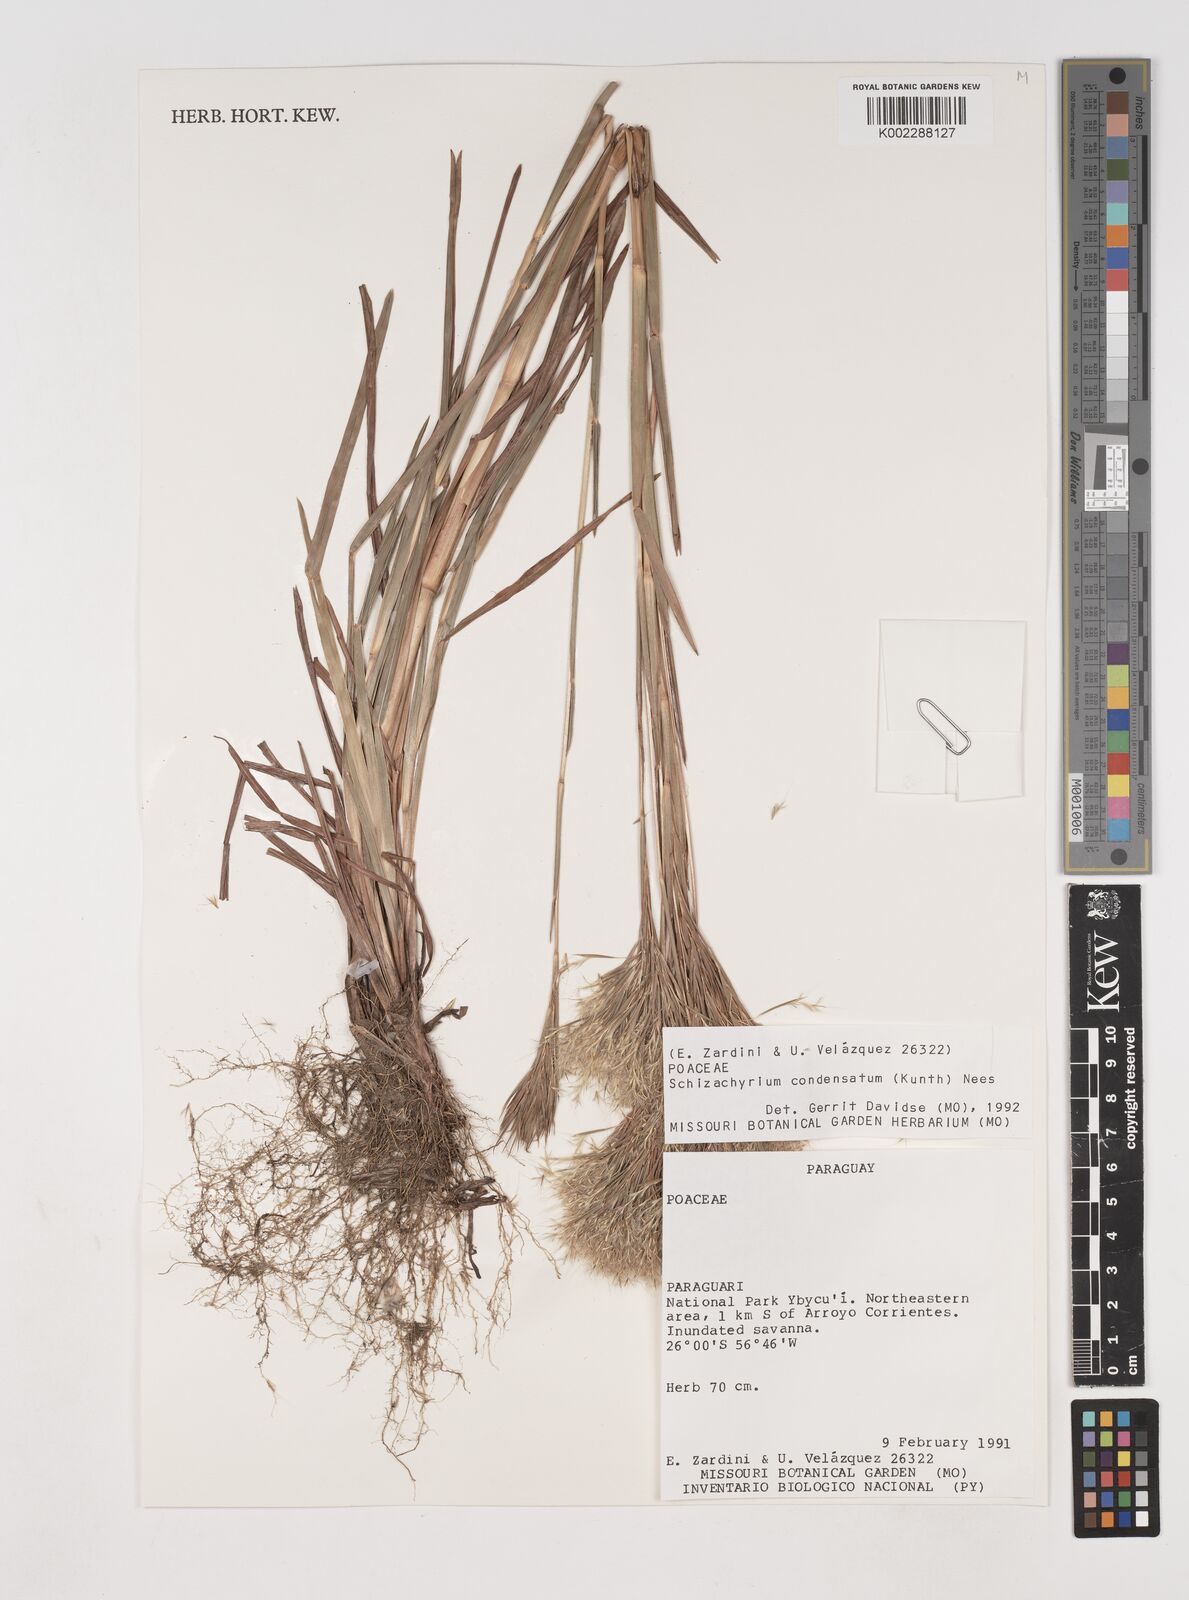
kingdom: Plantae
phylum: Tracheophyta
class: Liliopsida
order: Poales
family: Poaceae
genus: Schizachyrium
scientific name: Schizachyrium condensatum
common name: Bush beardgrass
